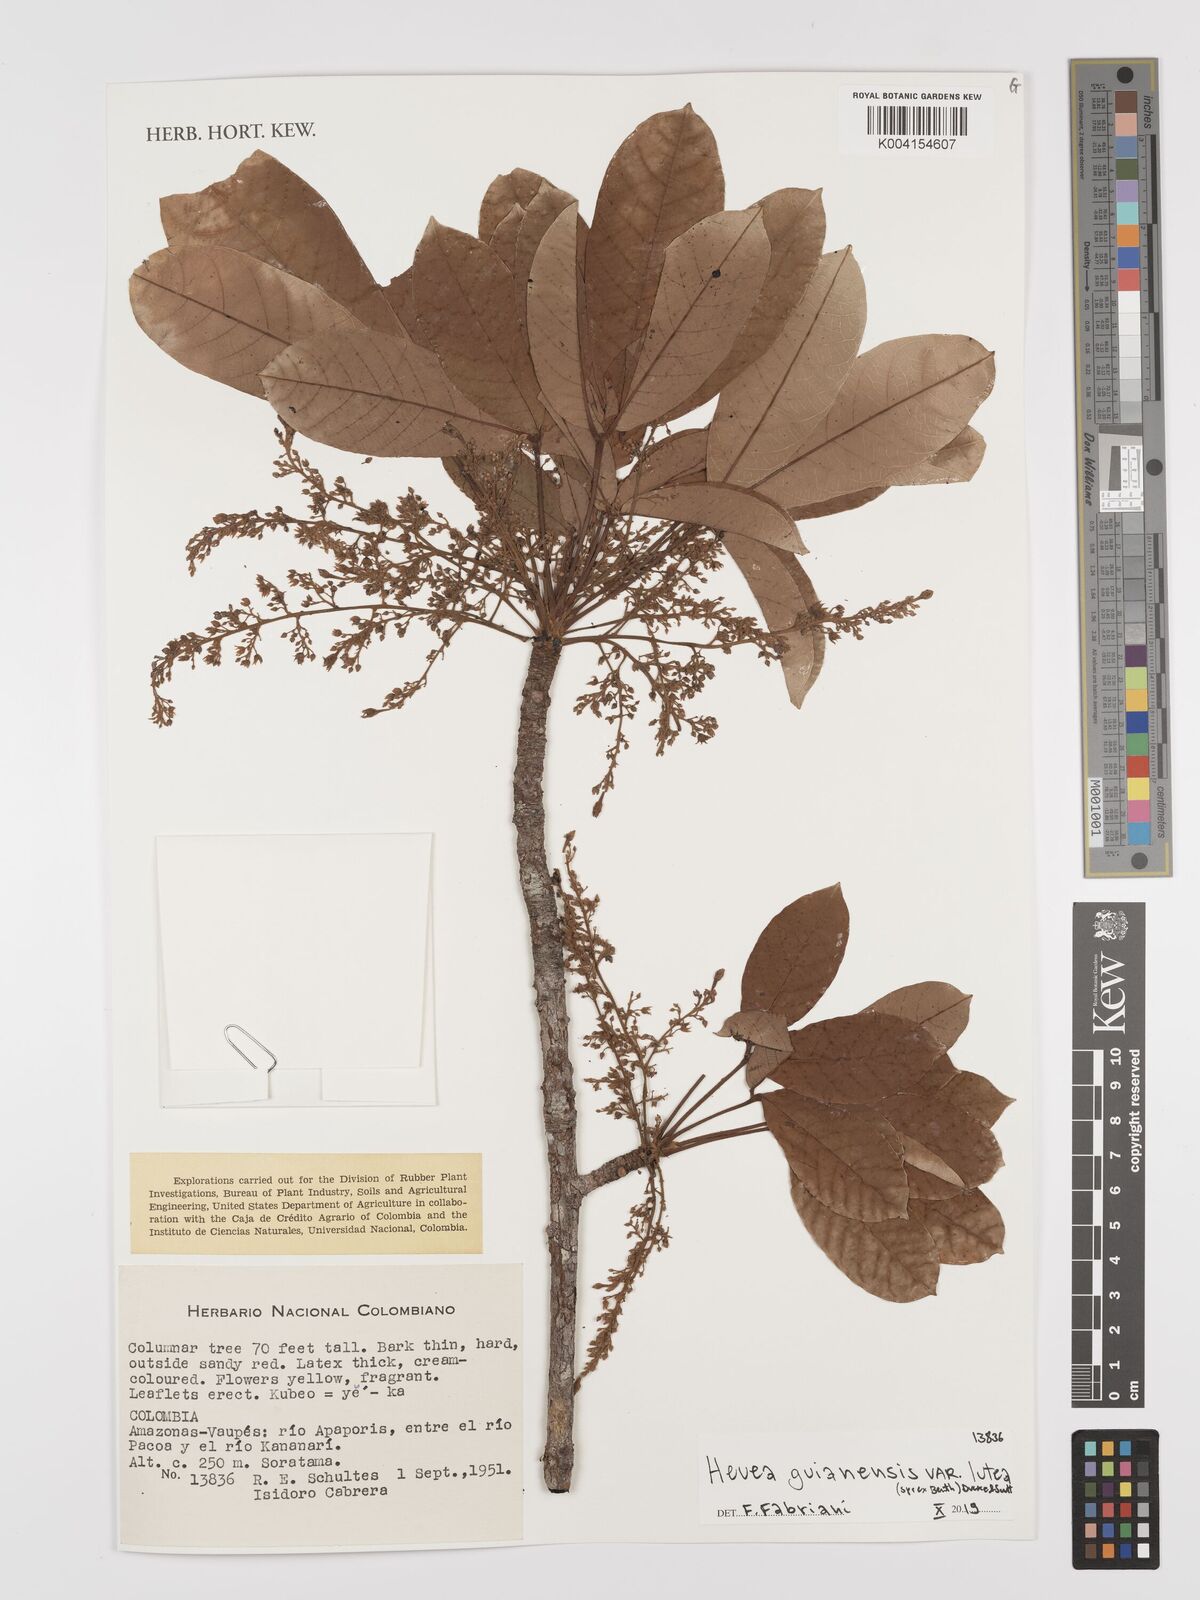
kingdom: Plantae
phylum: Tracheophyta
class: Magnoliopsida
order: Malpighiales
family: Euphorbiaceae
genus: Hevea
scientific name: Hevea guianensis
